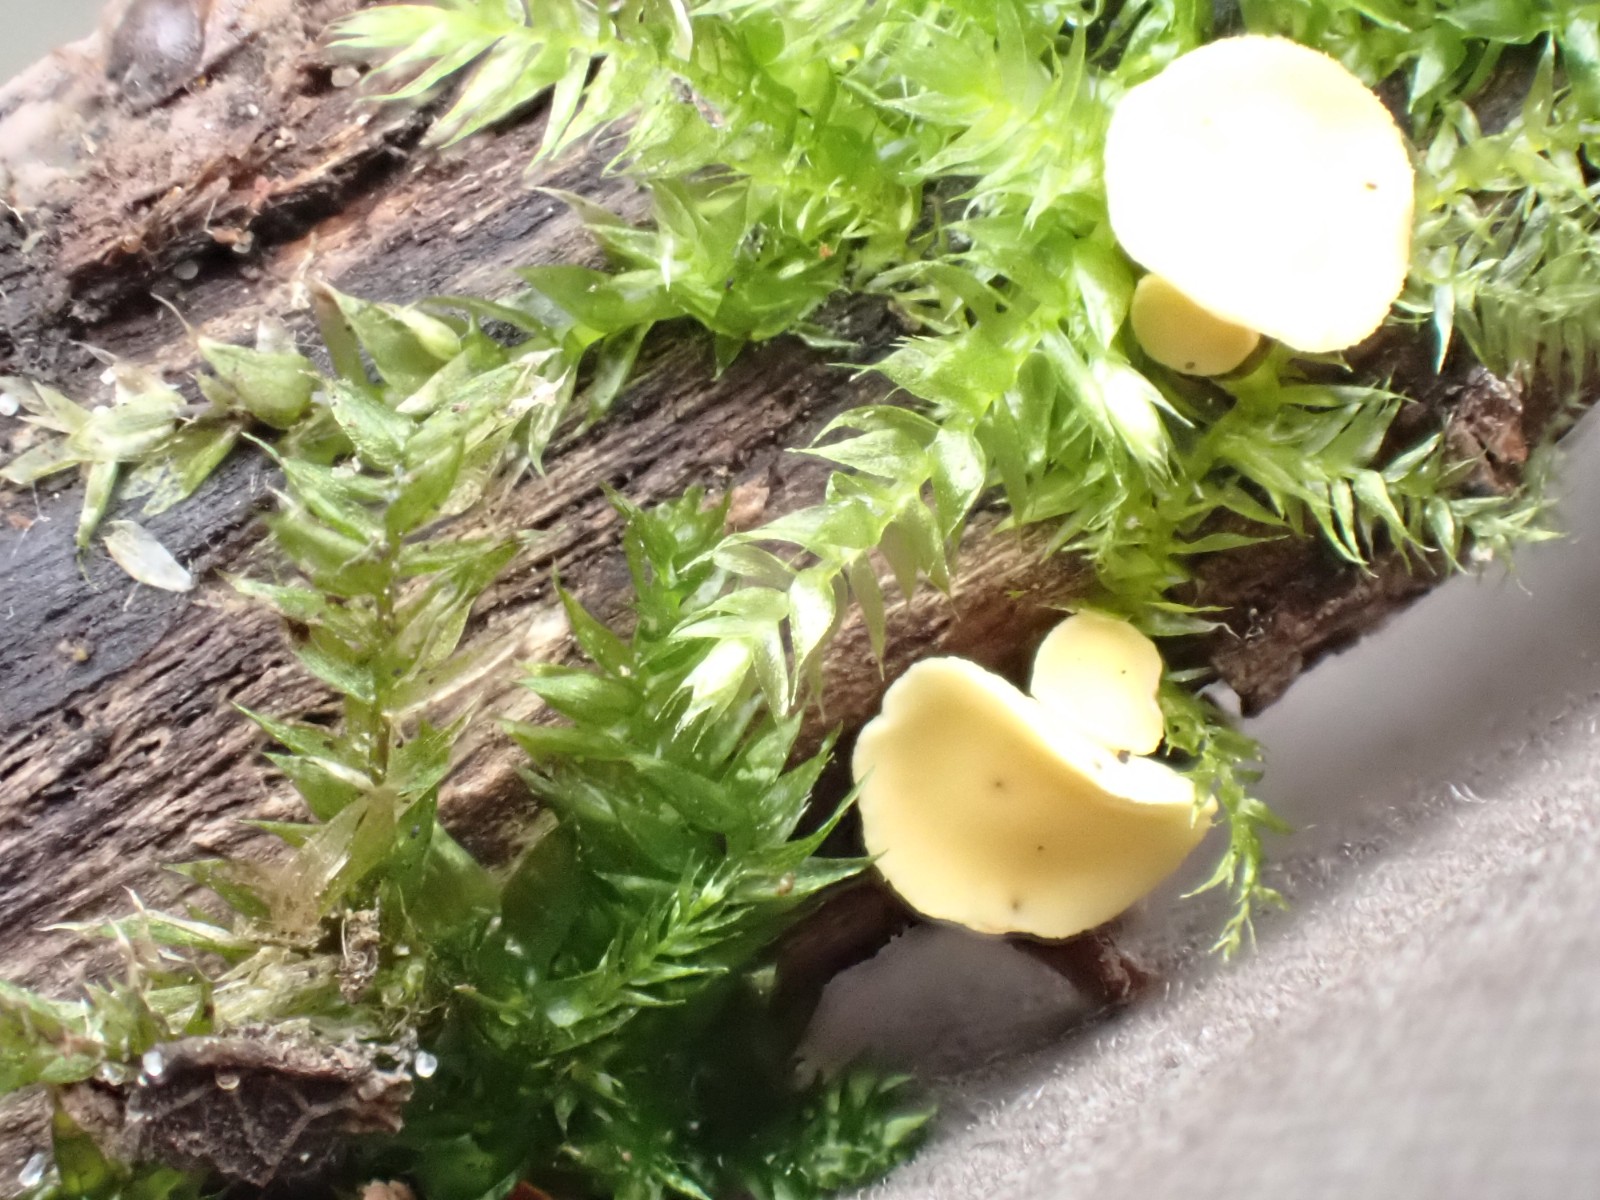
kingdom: Fungi
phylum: Ascomycota
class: Leotiomycetes
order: Helotiales
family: Helotiaceae
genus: Hymenoscyphus
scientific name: Hymenoscyphus calyculus
